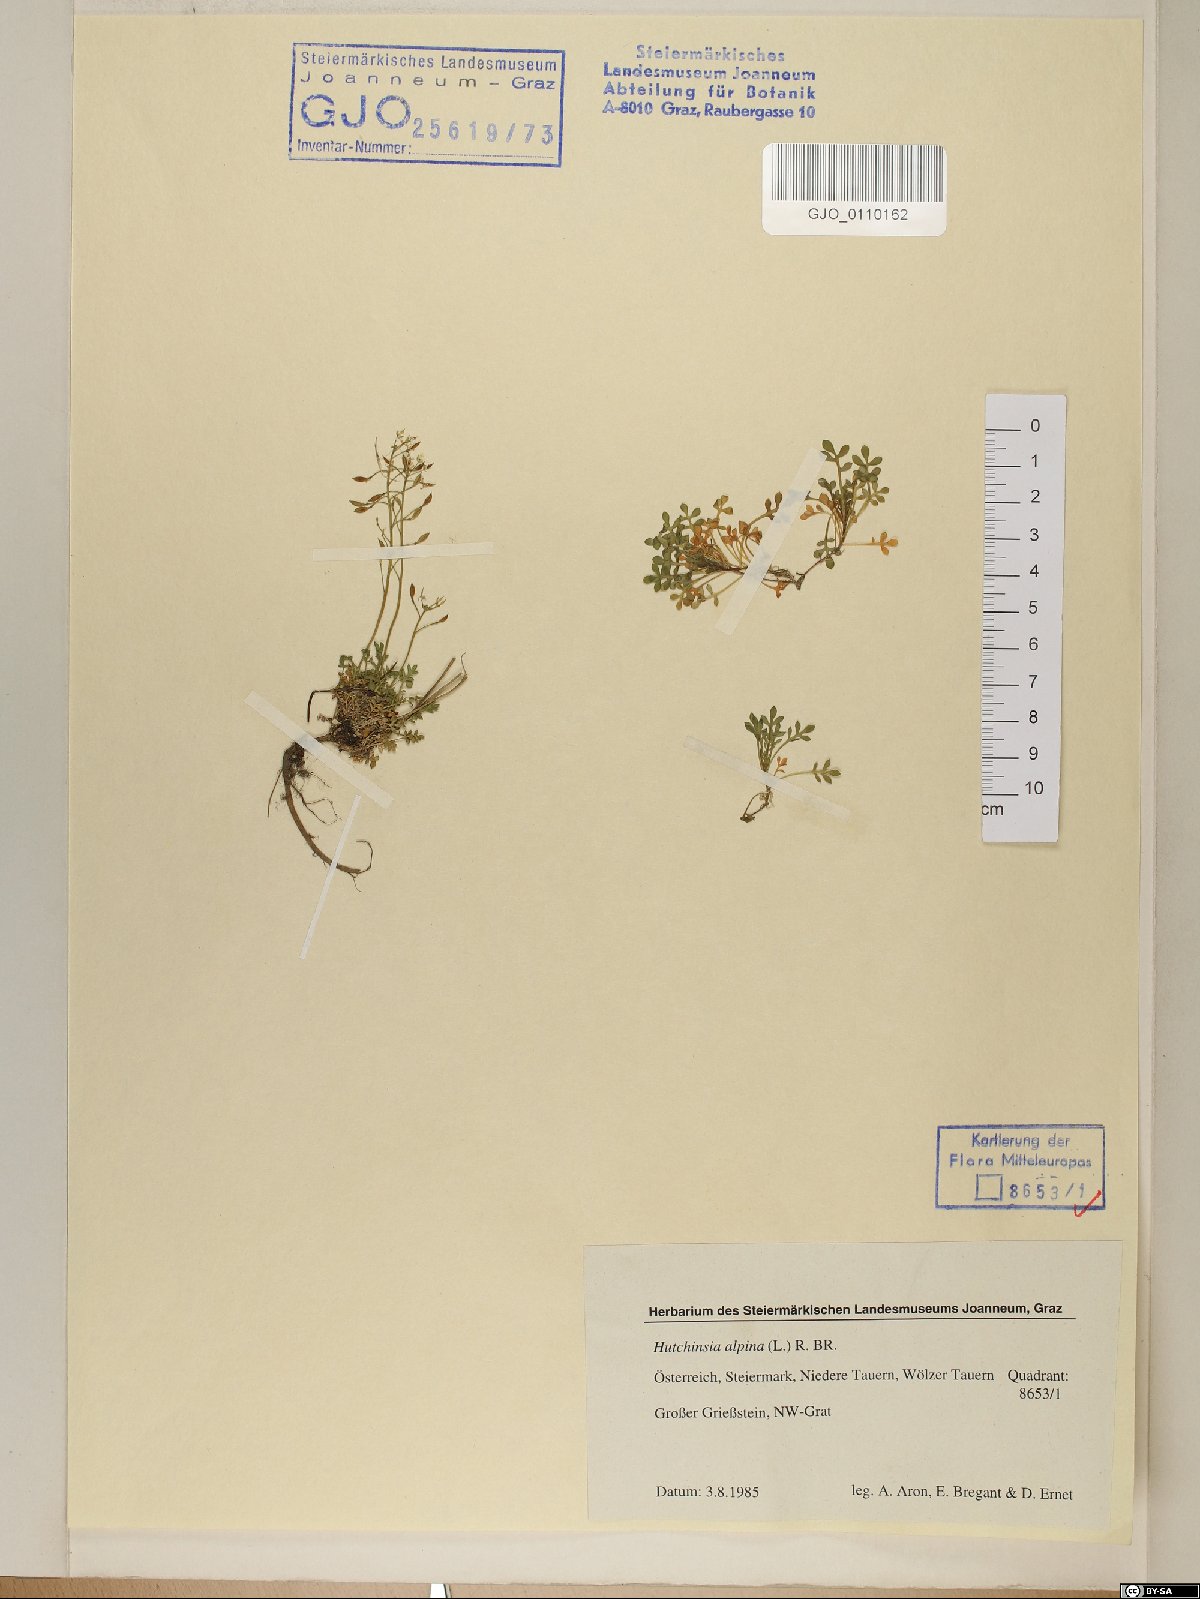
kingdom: Plantae
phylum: Tracheophyta
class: Magnoliopsida
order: Brassicales
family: Brassicaceae
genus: Hornungia
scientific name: Hornungia alpina
